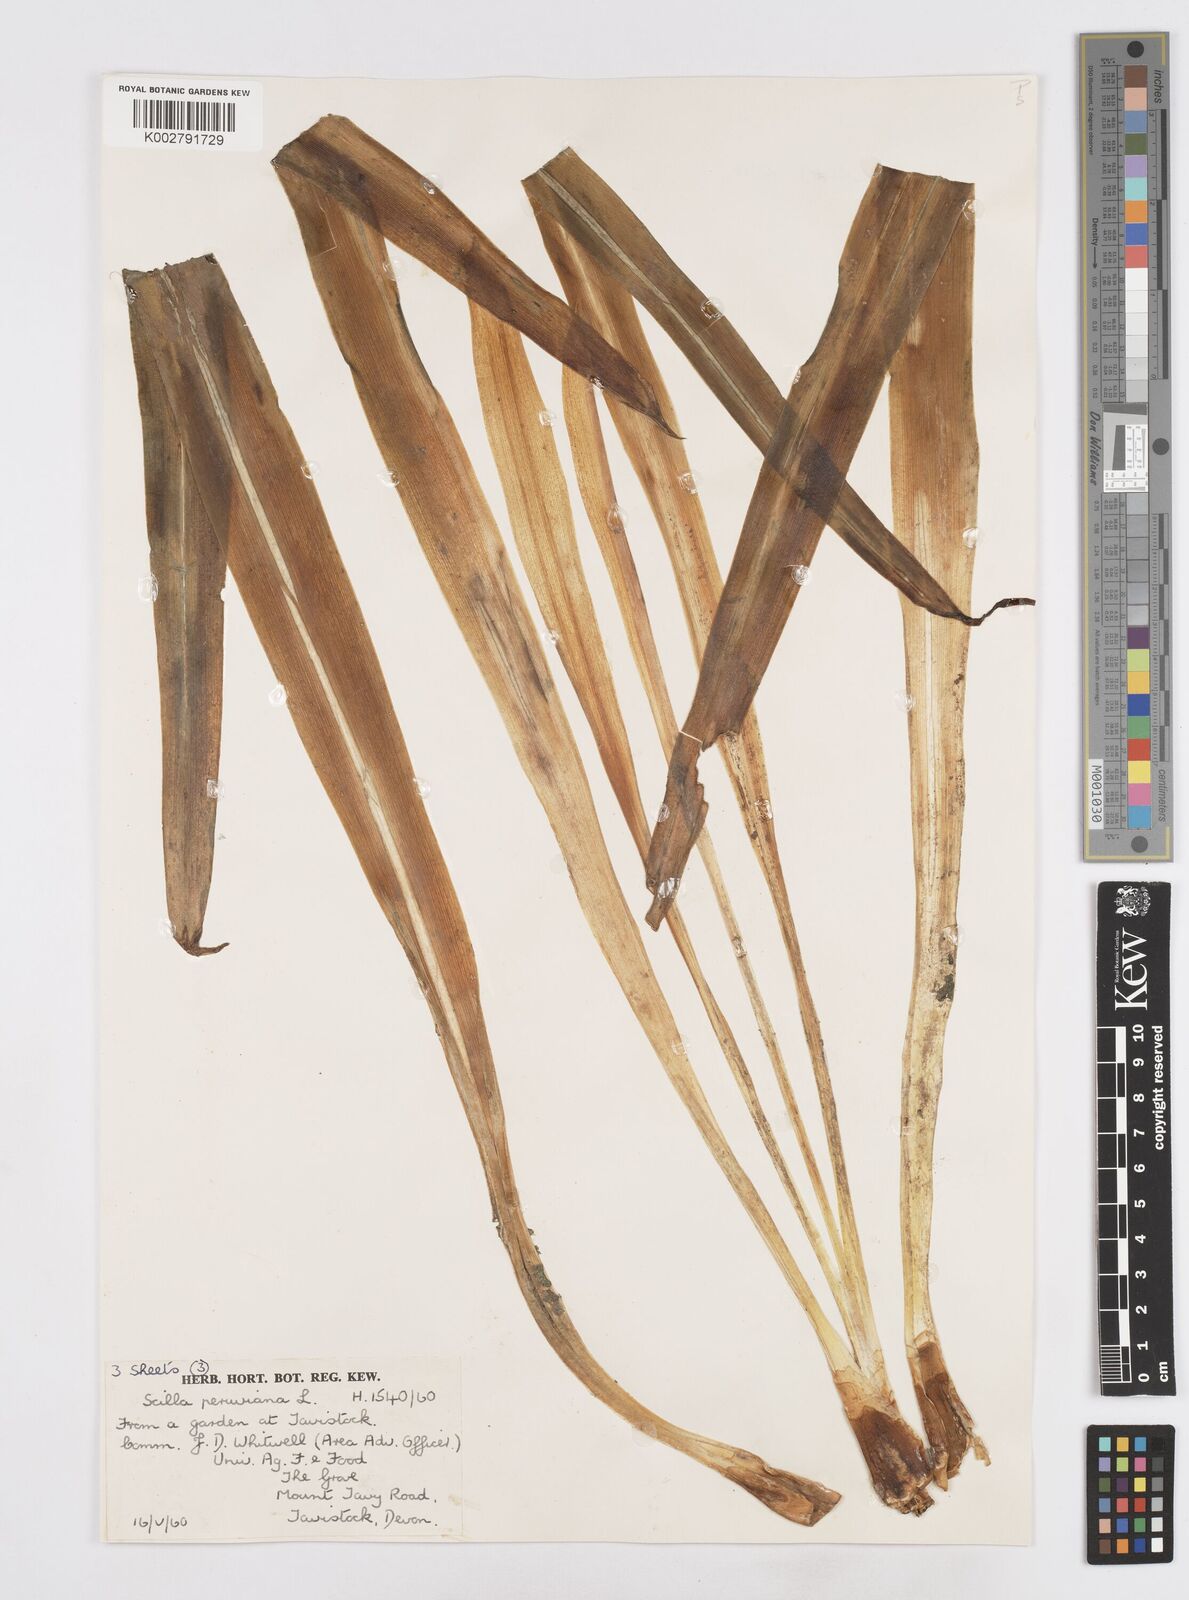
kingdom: Plantae
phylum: Tracheophyta
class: Liliopsida
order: Asparagales
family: Asparagaceae
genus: Scilla
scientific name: Scilla peruviana
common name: Portuguese squill
